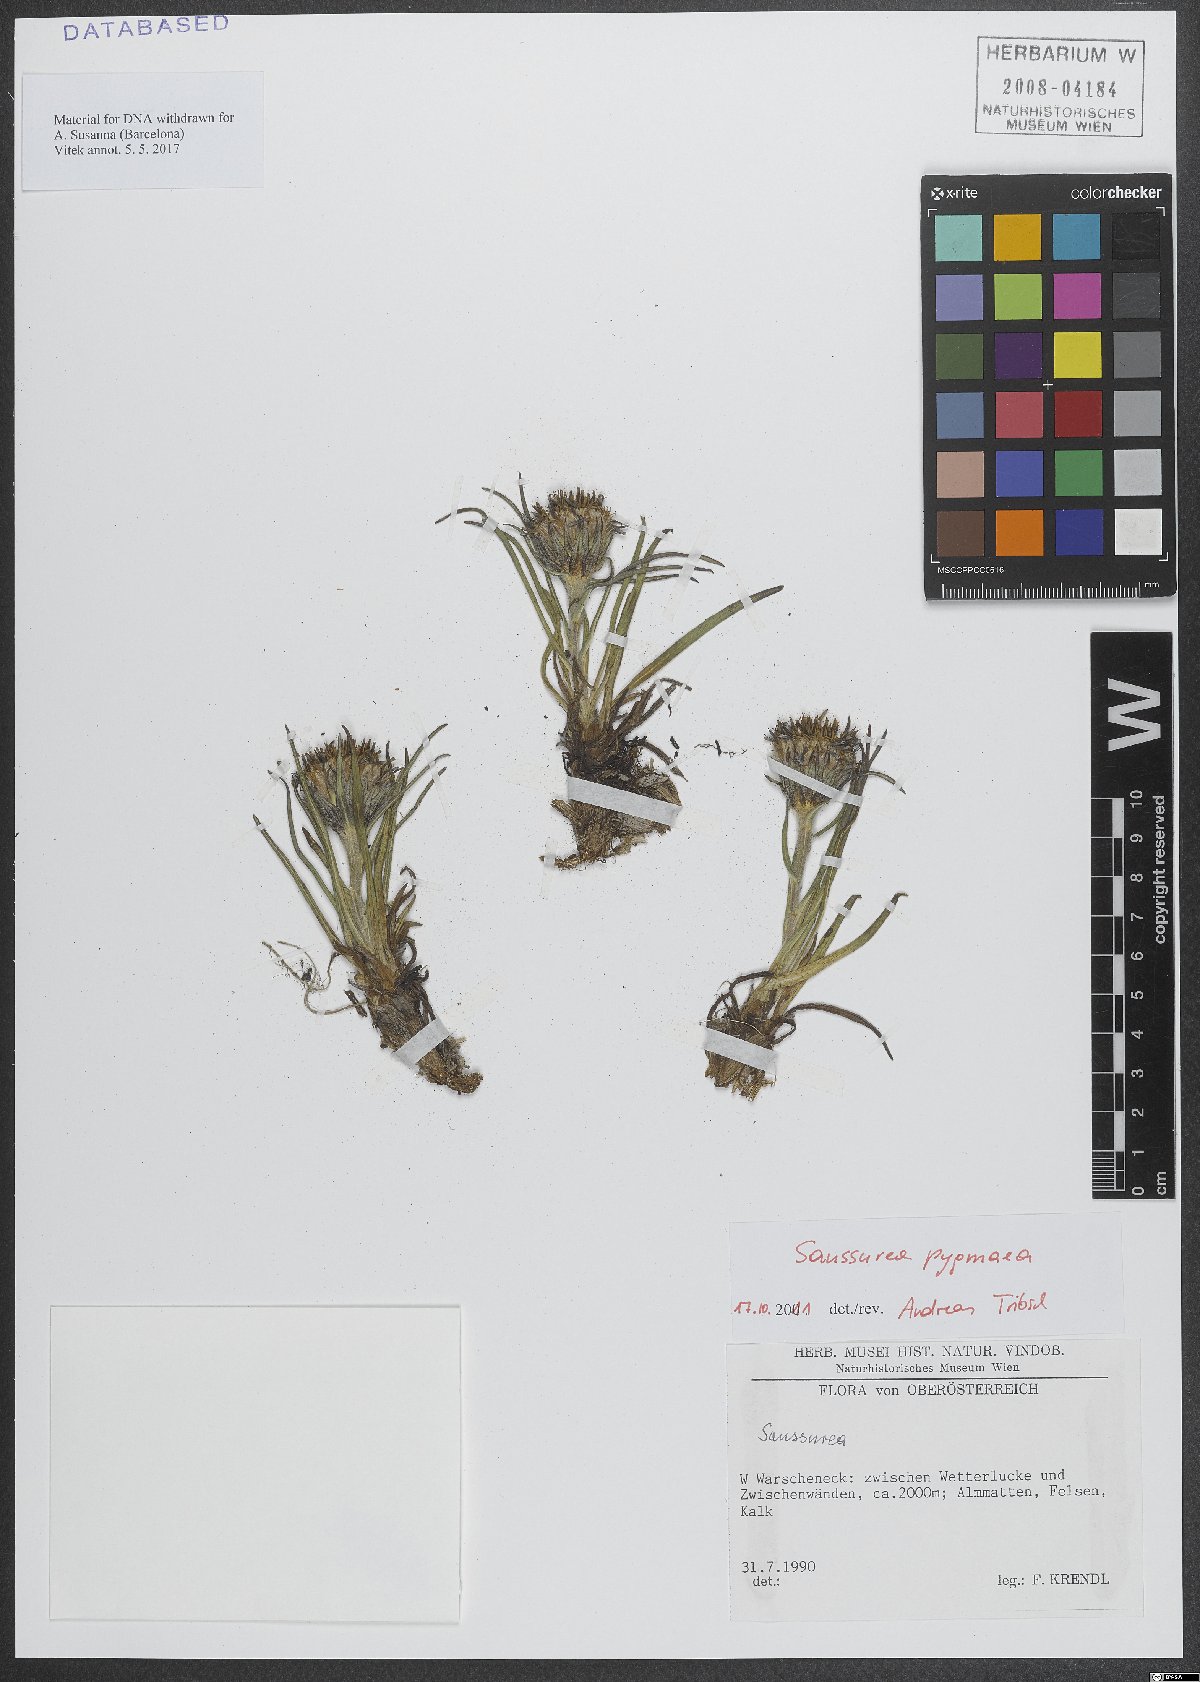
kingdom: Plantae
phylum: Tracheophyta
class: Magnoliopsida
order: Asterales
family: Asteraceae
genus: Saussurea
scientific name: Saussurea pygmaea
